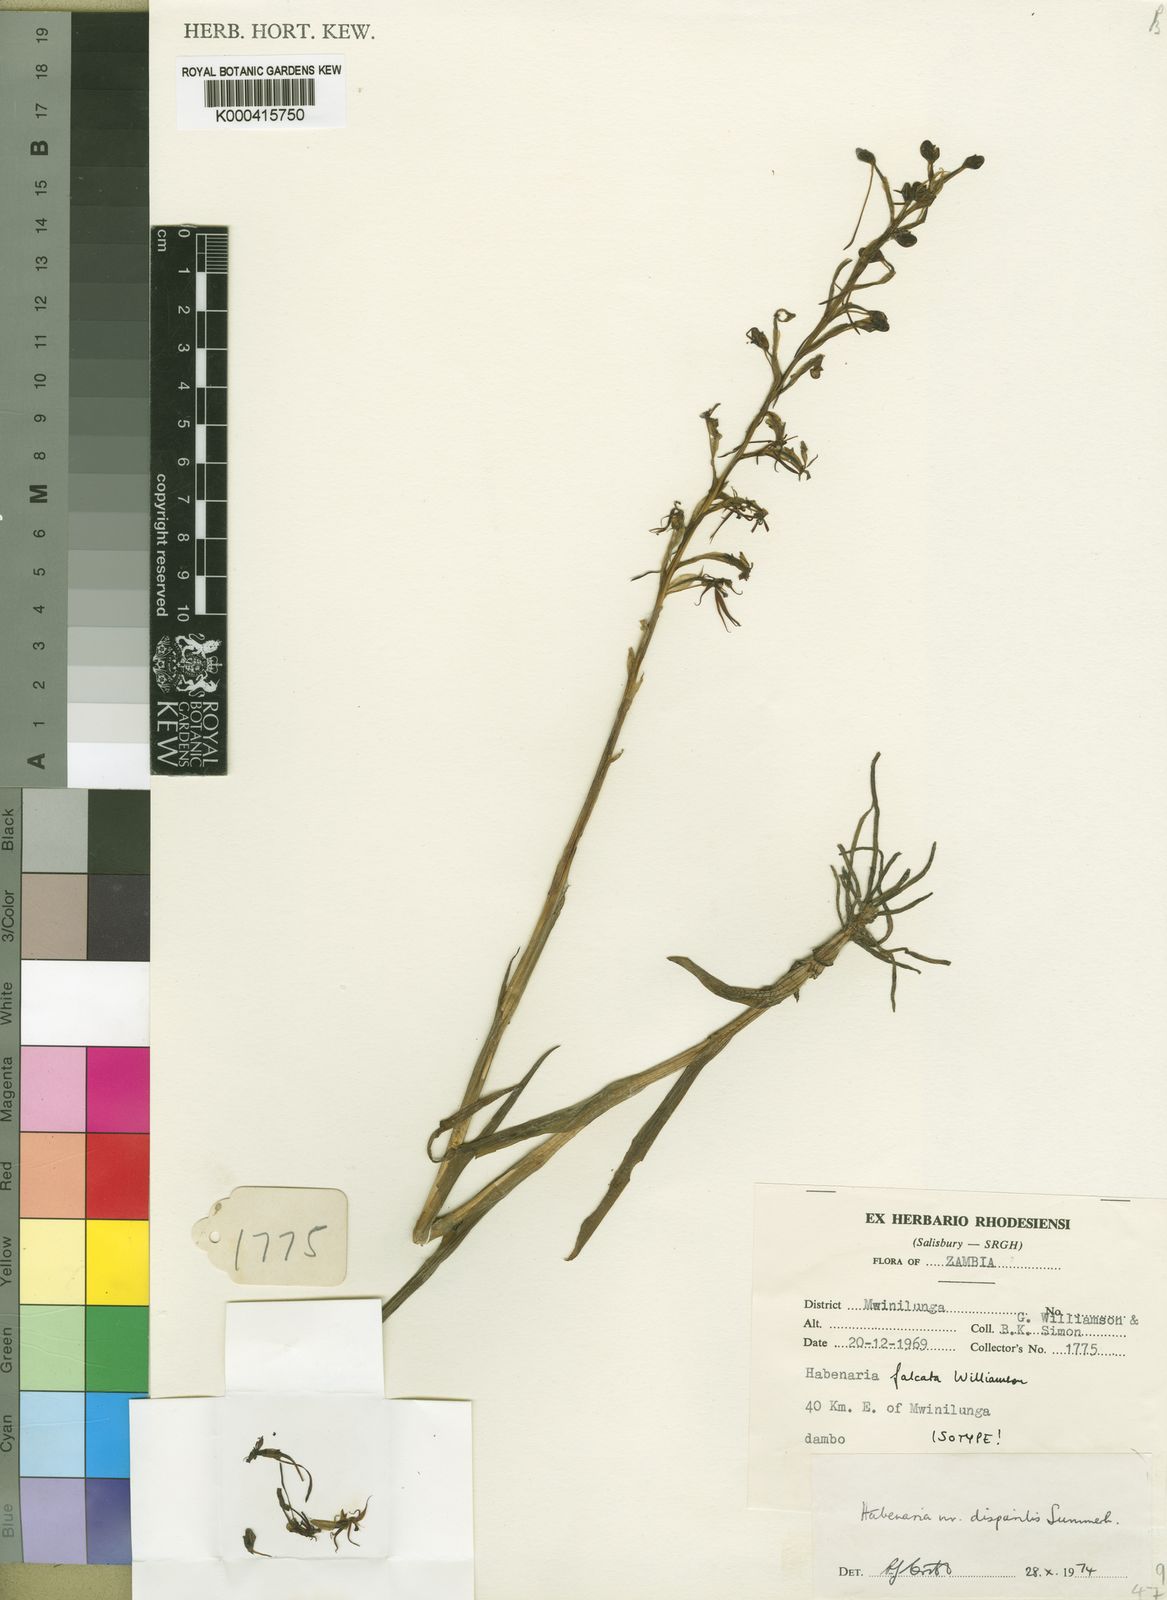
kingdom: Plantae
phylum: Tracheophyta
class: Liliopsida
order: Asparagales
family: Orchidaceae
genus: Habenaria
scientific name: Habenaria falcata
